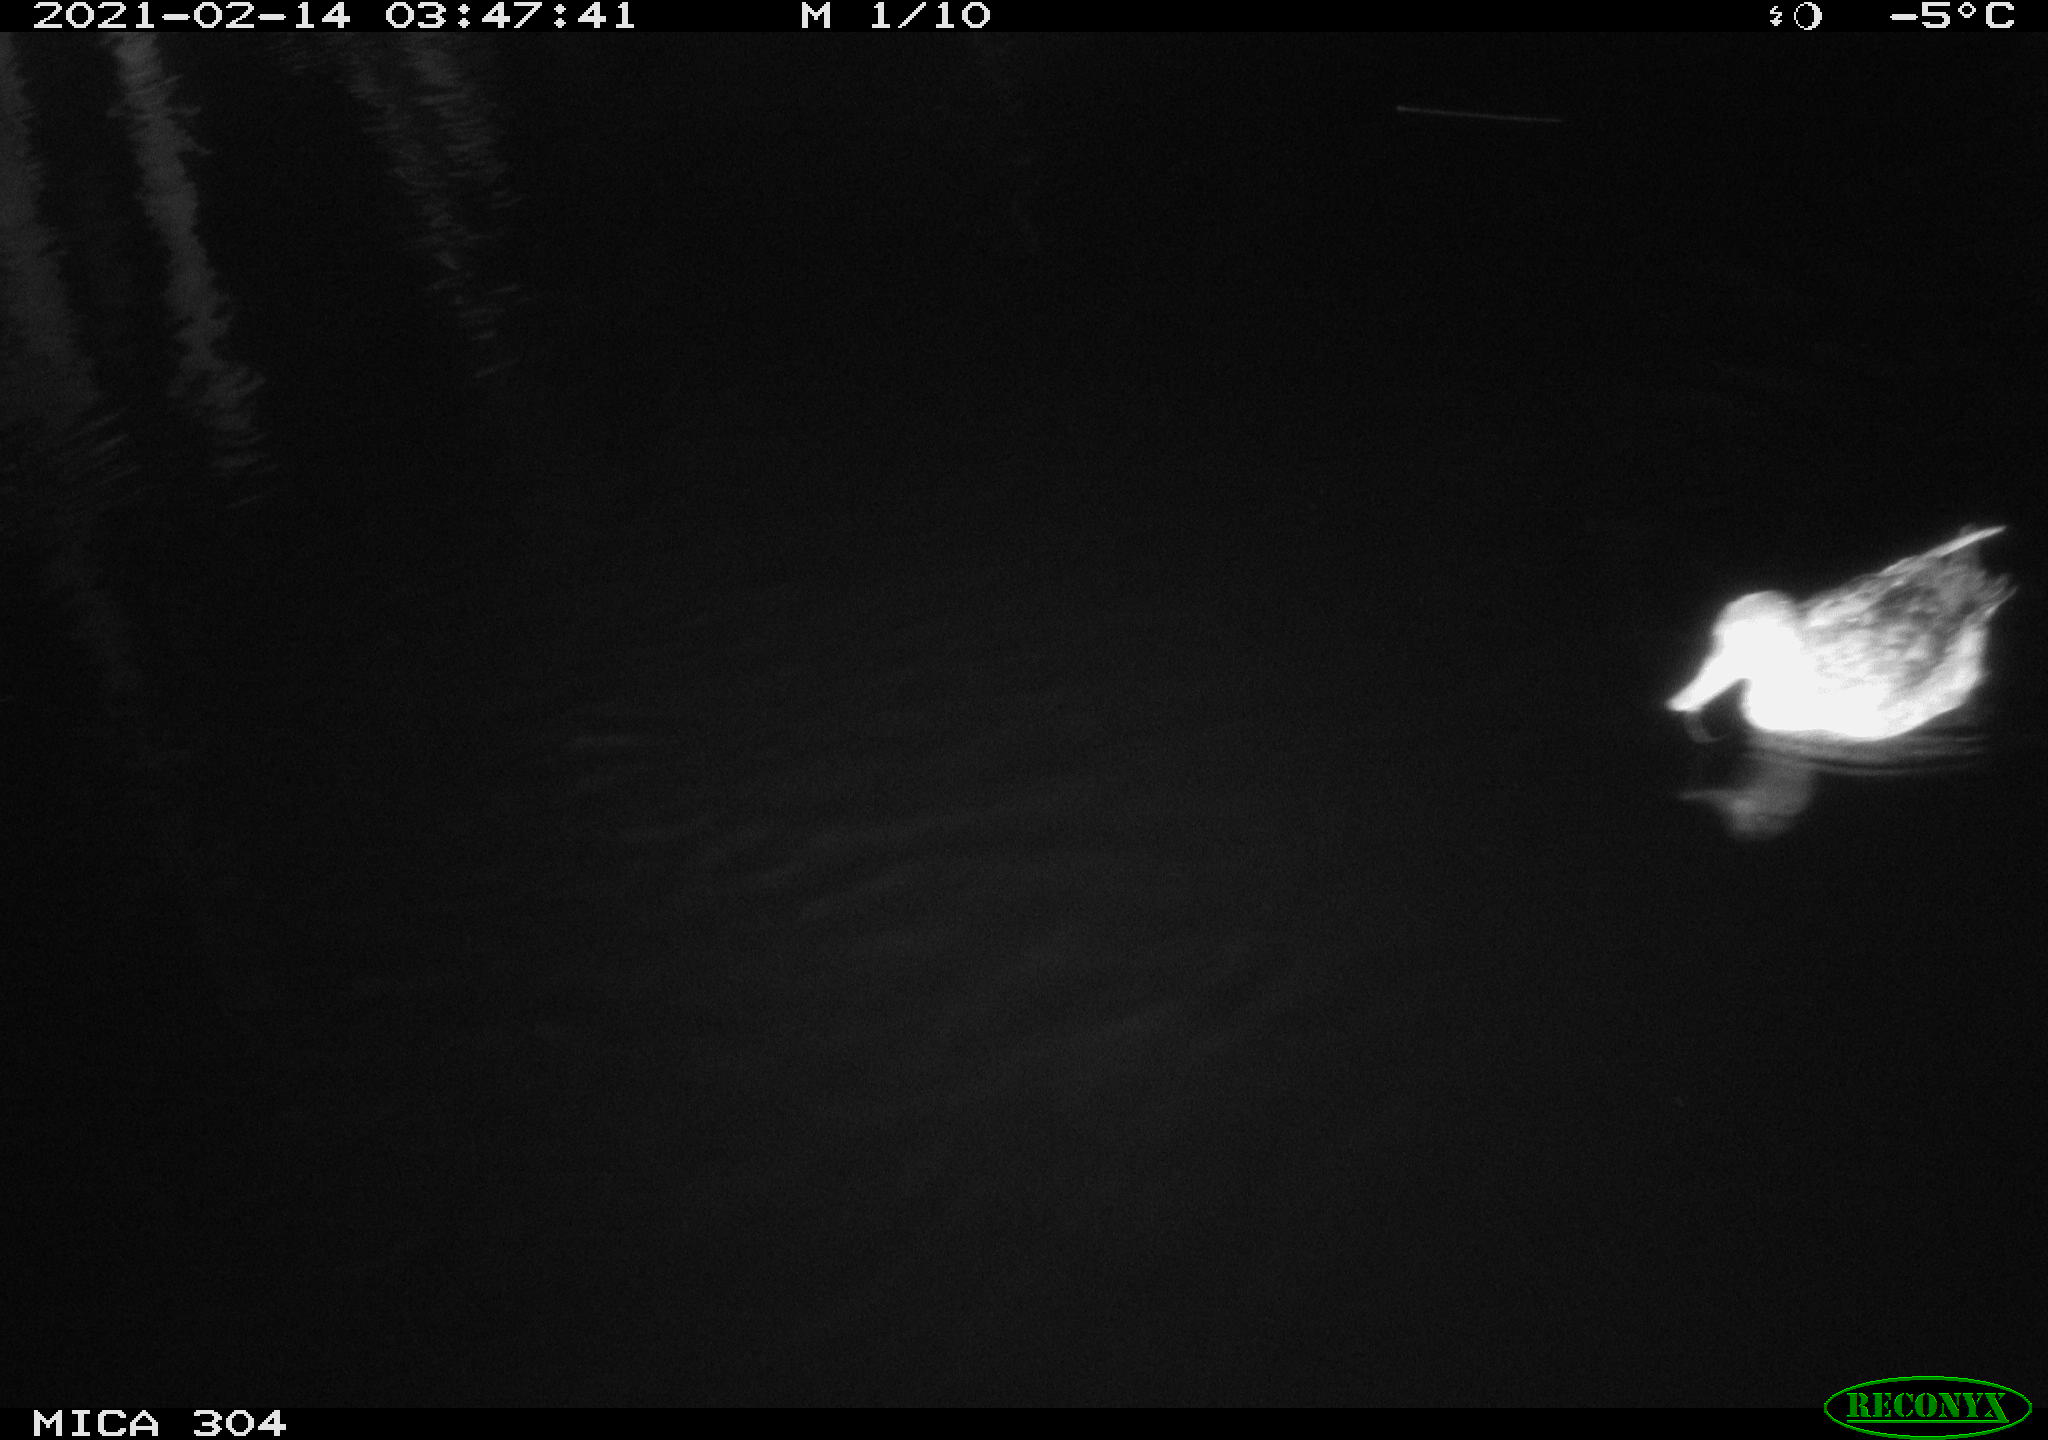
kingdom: Animalia
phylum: Chordata
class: Aves
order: Anseriformes
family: Anatidae
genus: Anas
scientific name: Anas platyrhynchos
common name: Mallard
